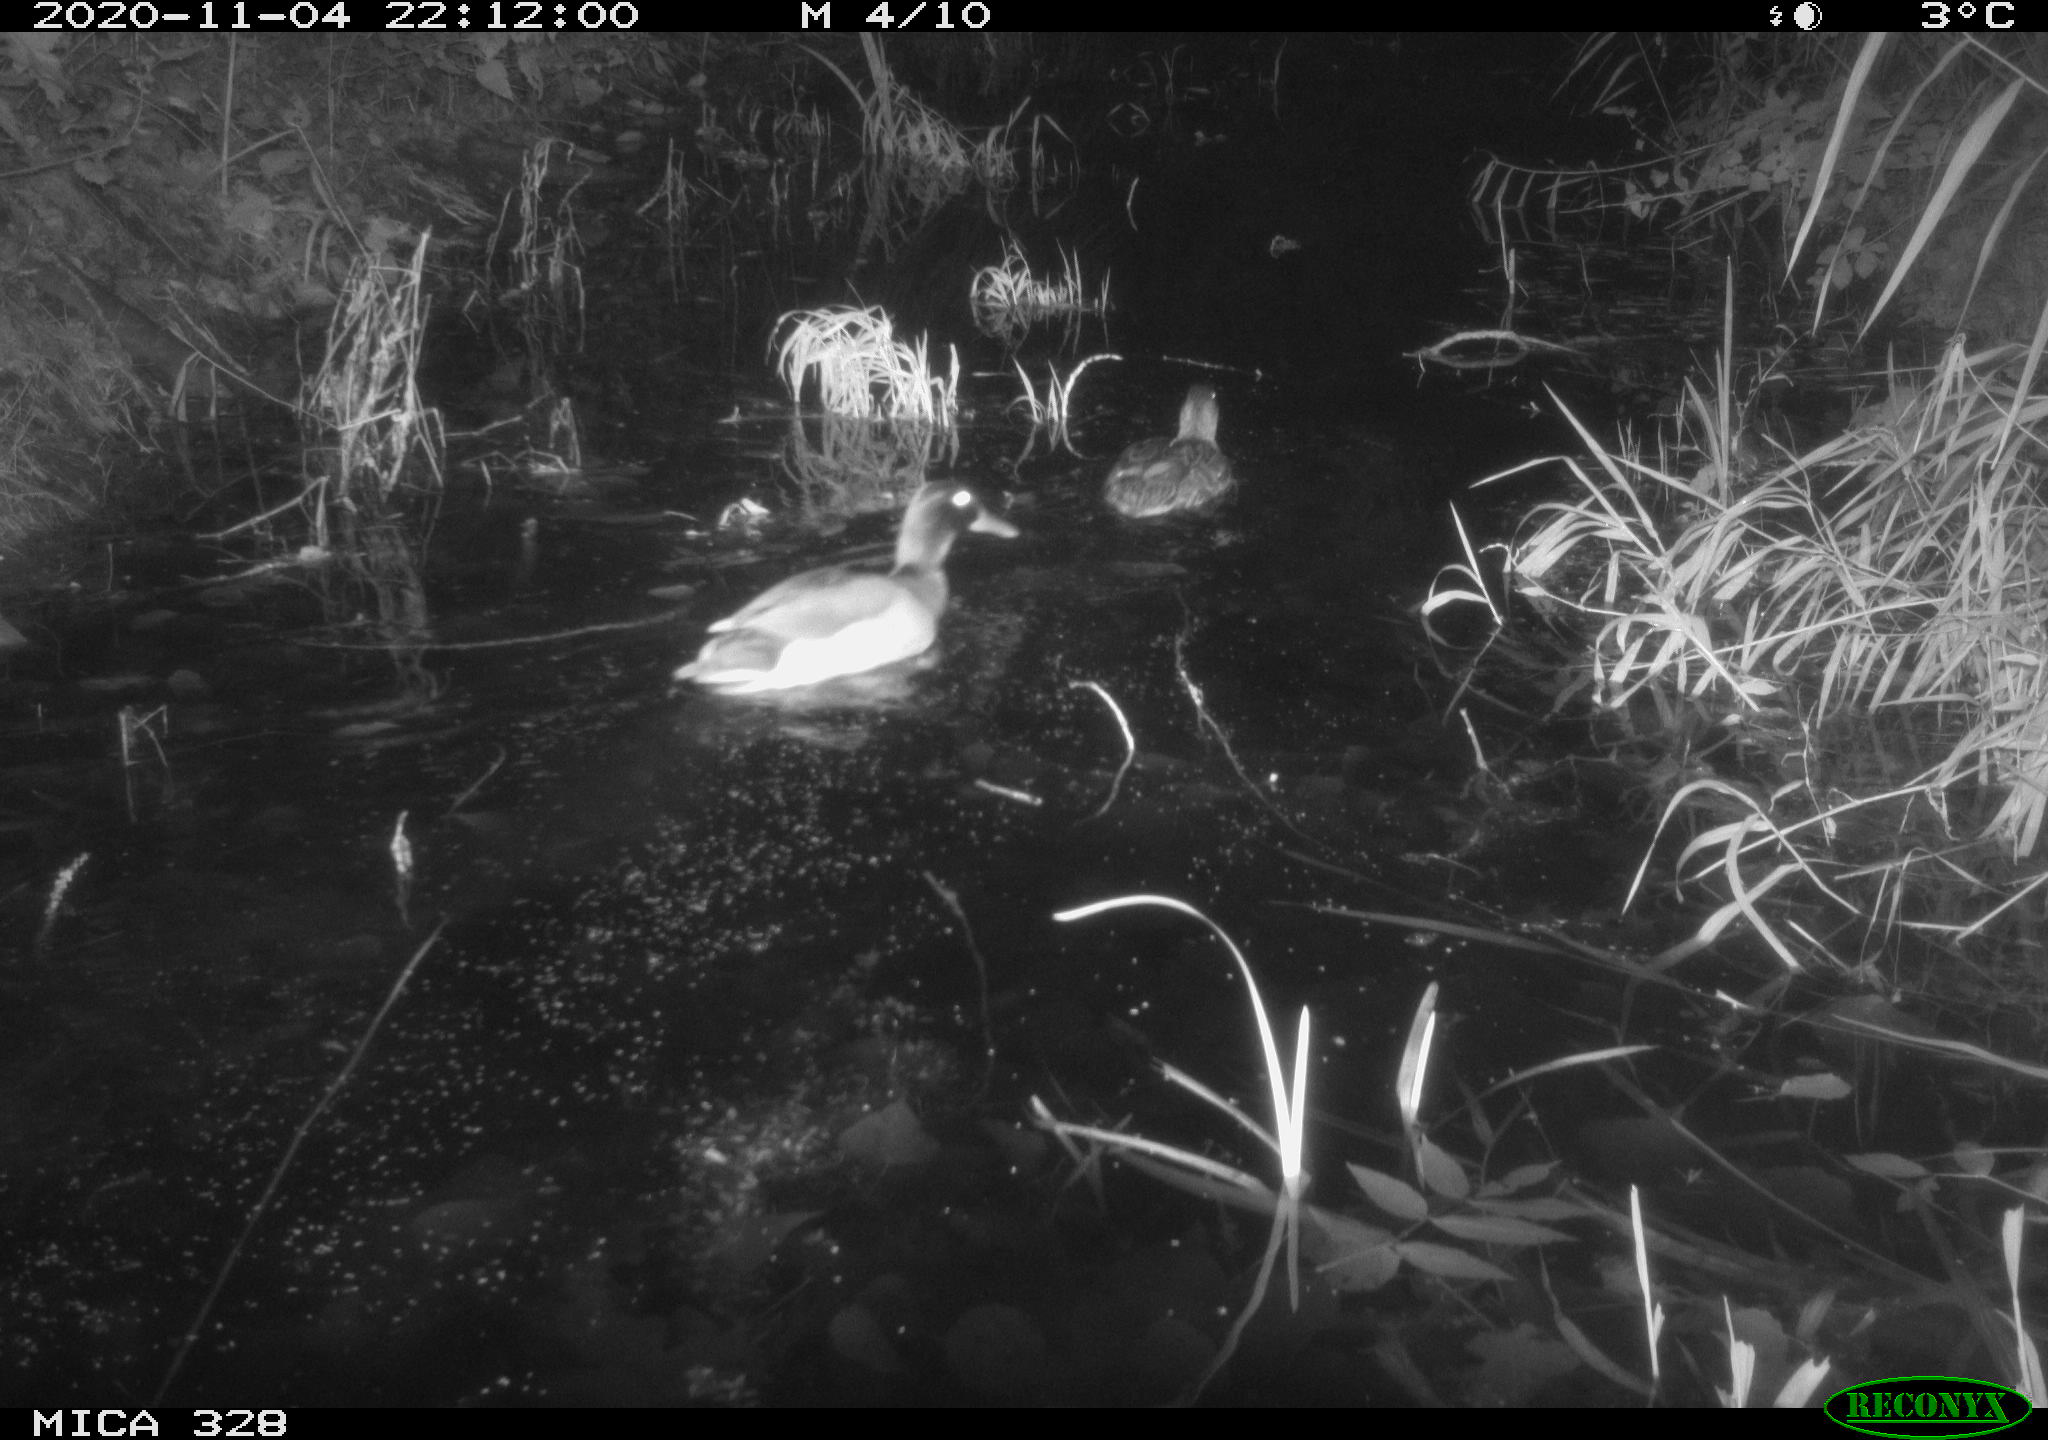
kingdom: Animalia
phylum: Chordata
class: Aves
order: Anseriformes
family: Anatidae
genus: Anas
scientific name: Anas platyrhynchos
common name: Mallard
